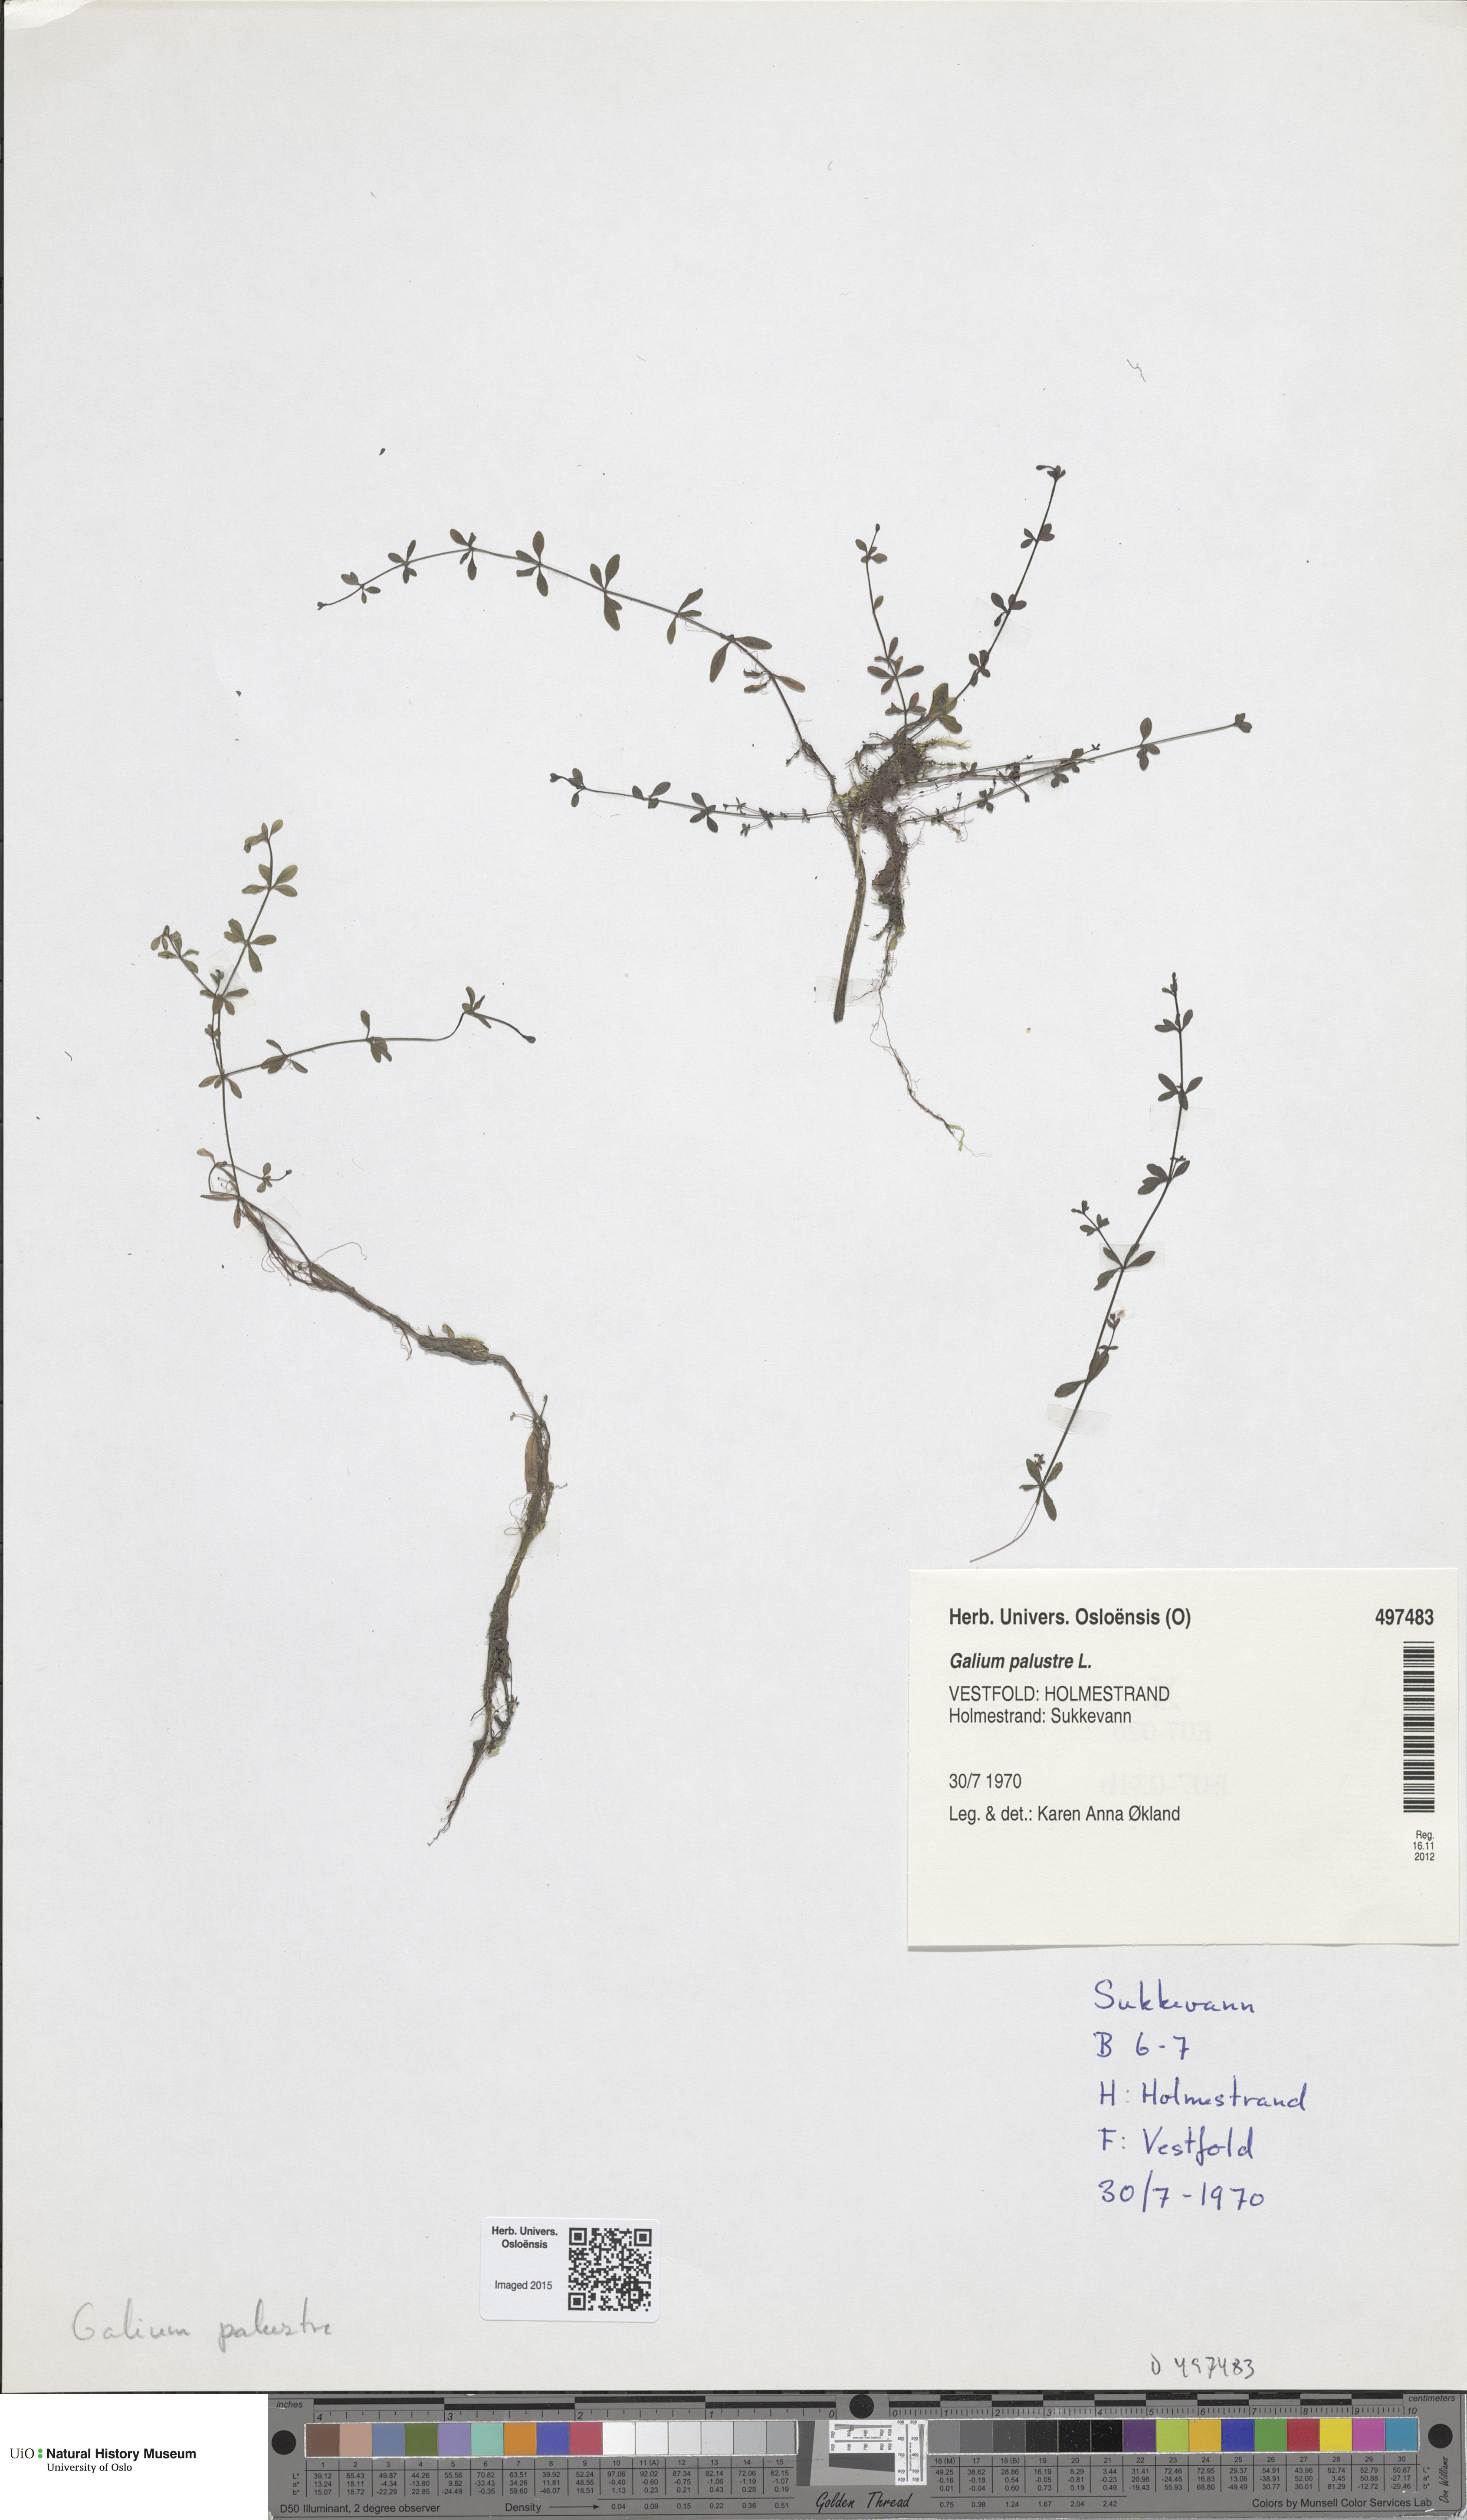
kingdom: Plantae
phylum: Tracheophyta
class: Magnoliopsida
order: Gentianales
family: Rubiaceae
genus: Galium
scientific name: Galium palustre
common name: Common marsh-bedstraw
